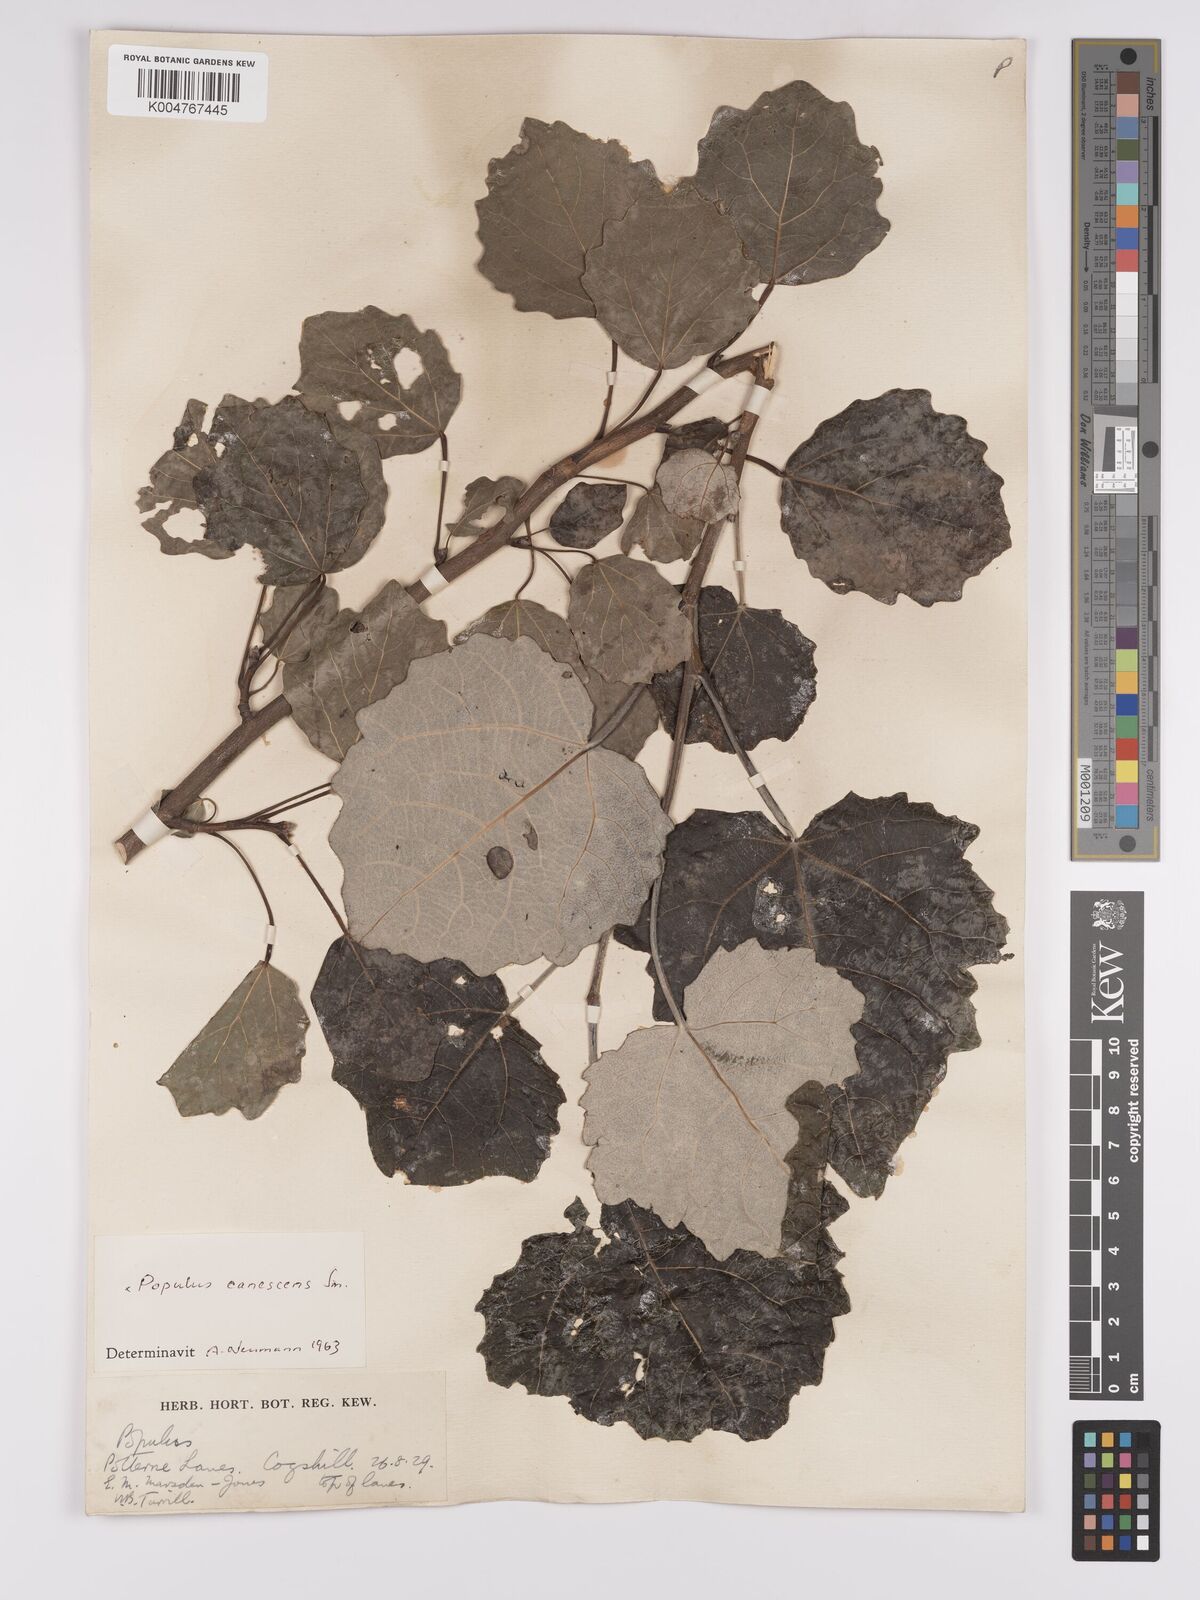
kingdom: Plantae
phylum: Tracheophyta
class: Magnoliopsida
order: Malpighiales
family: Salicaceae
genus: Populus
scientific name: Populus canescens
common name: Gray poplar
